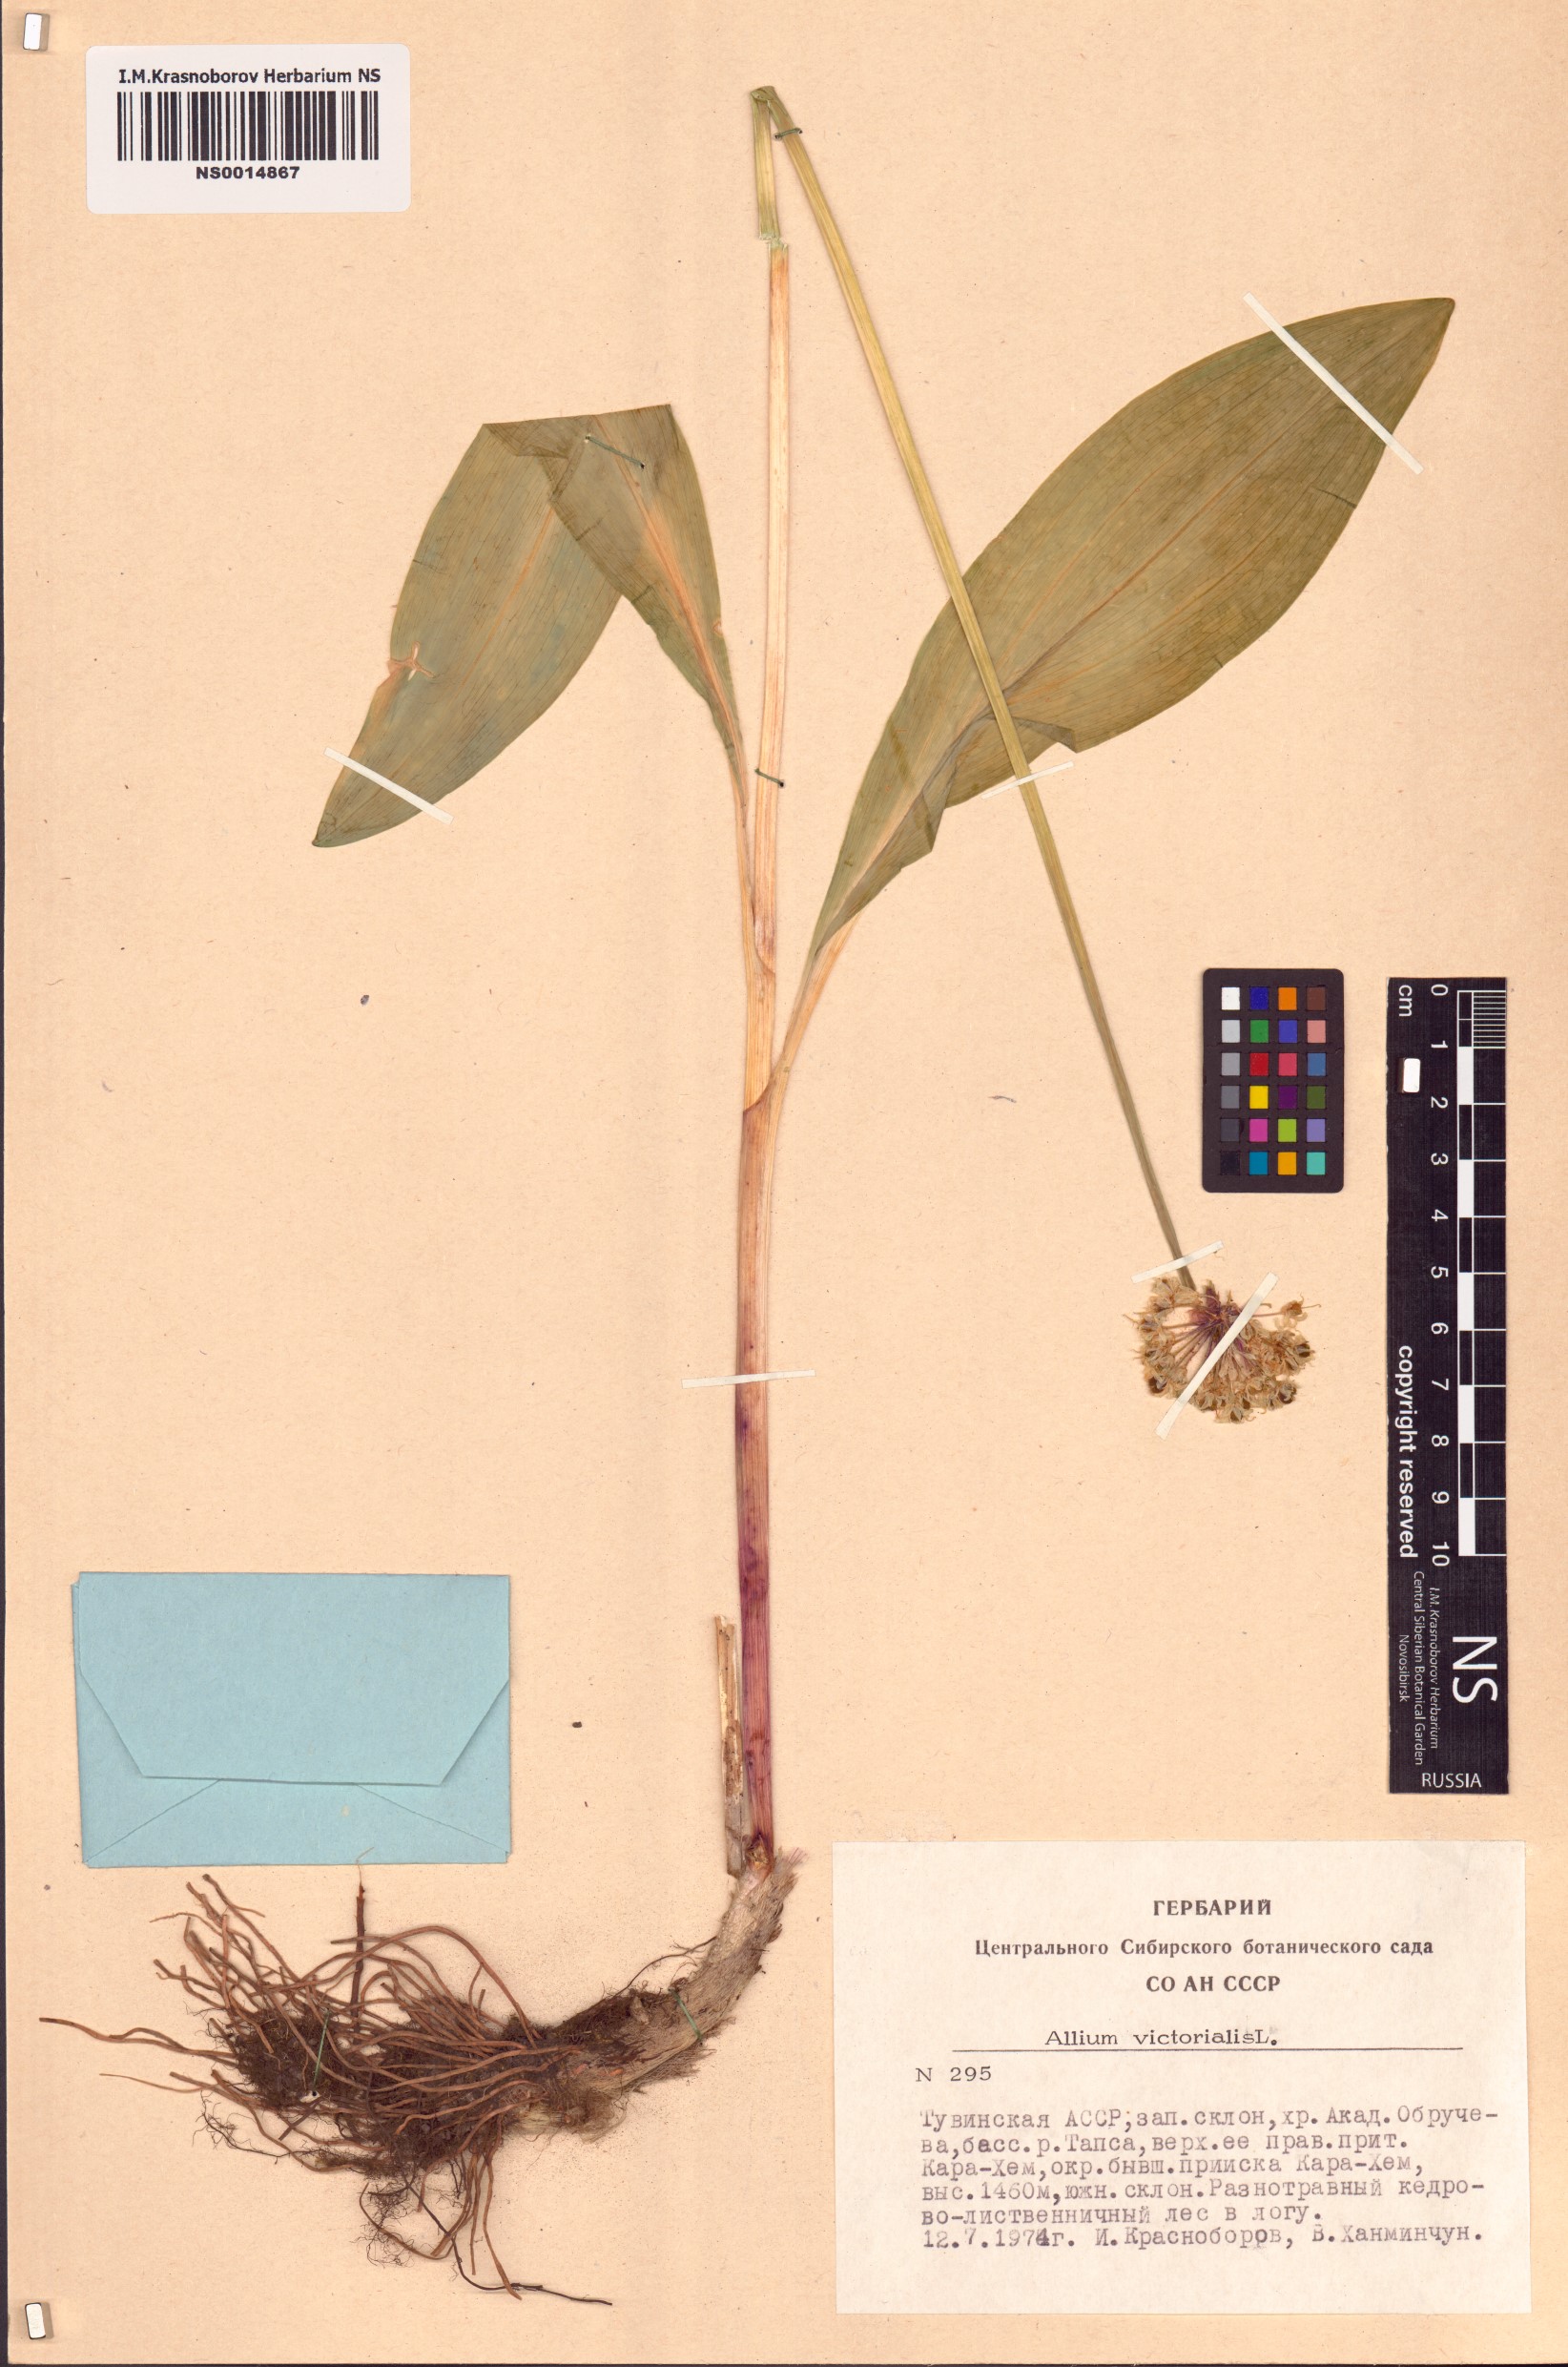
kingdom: Plantae
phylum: Tracheophyta
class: Liliopsida
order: Asparagales
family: Amaryllidaceae
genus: Allium
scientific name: Allium victorialis
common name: Alpine leek
